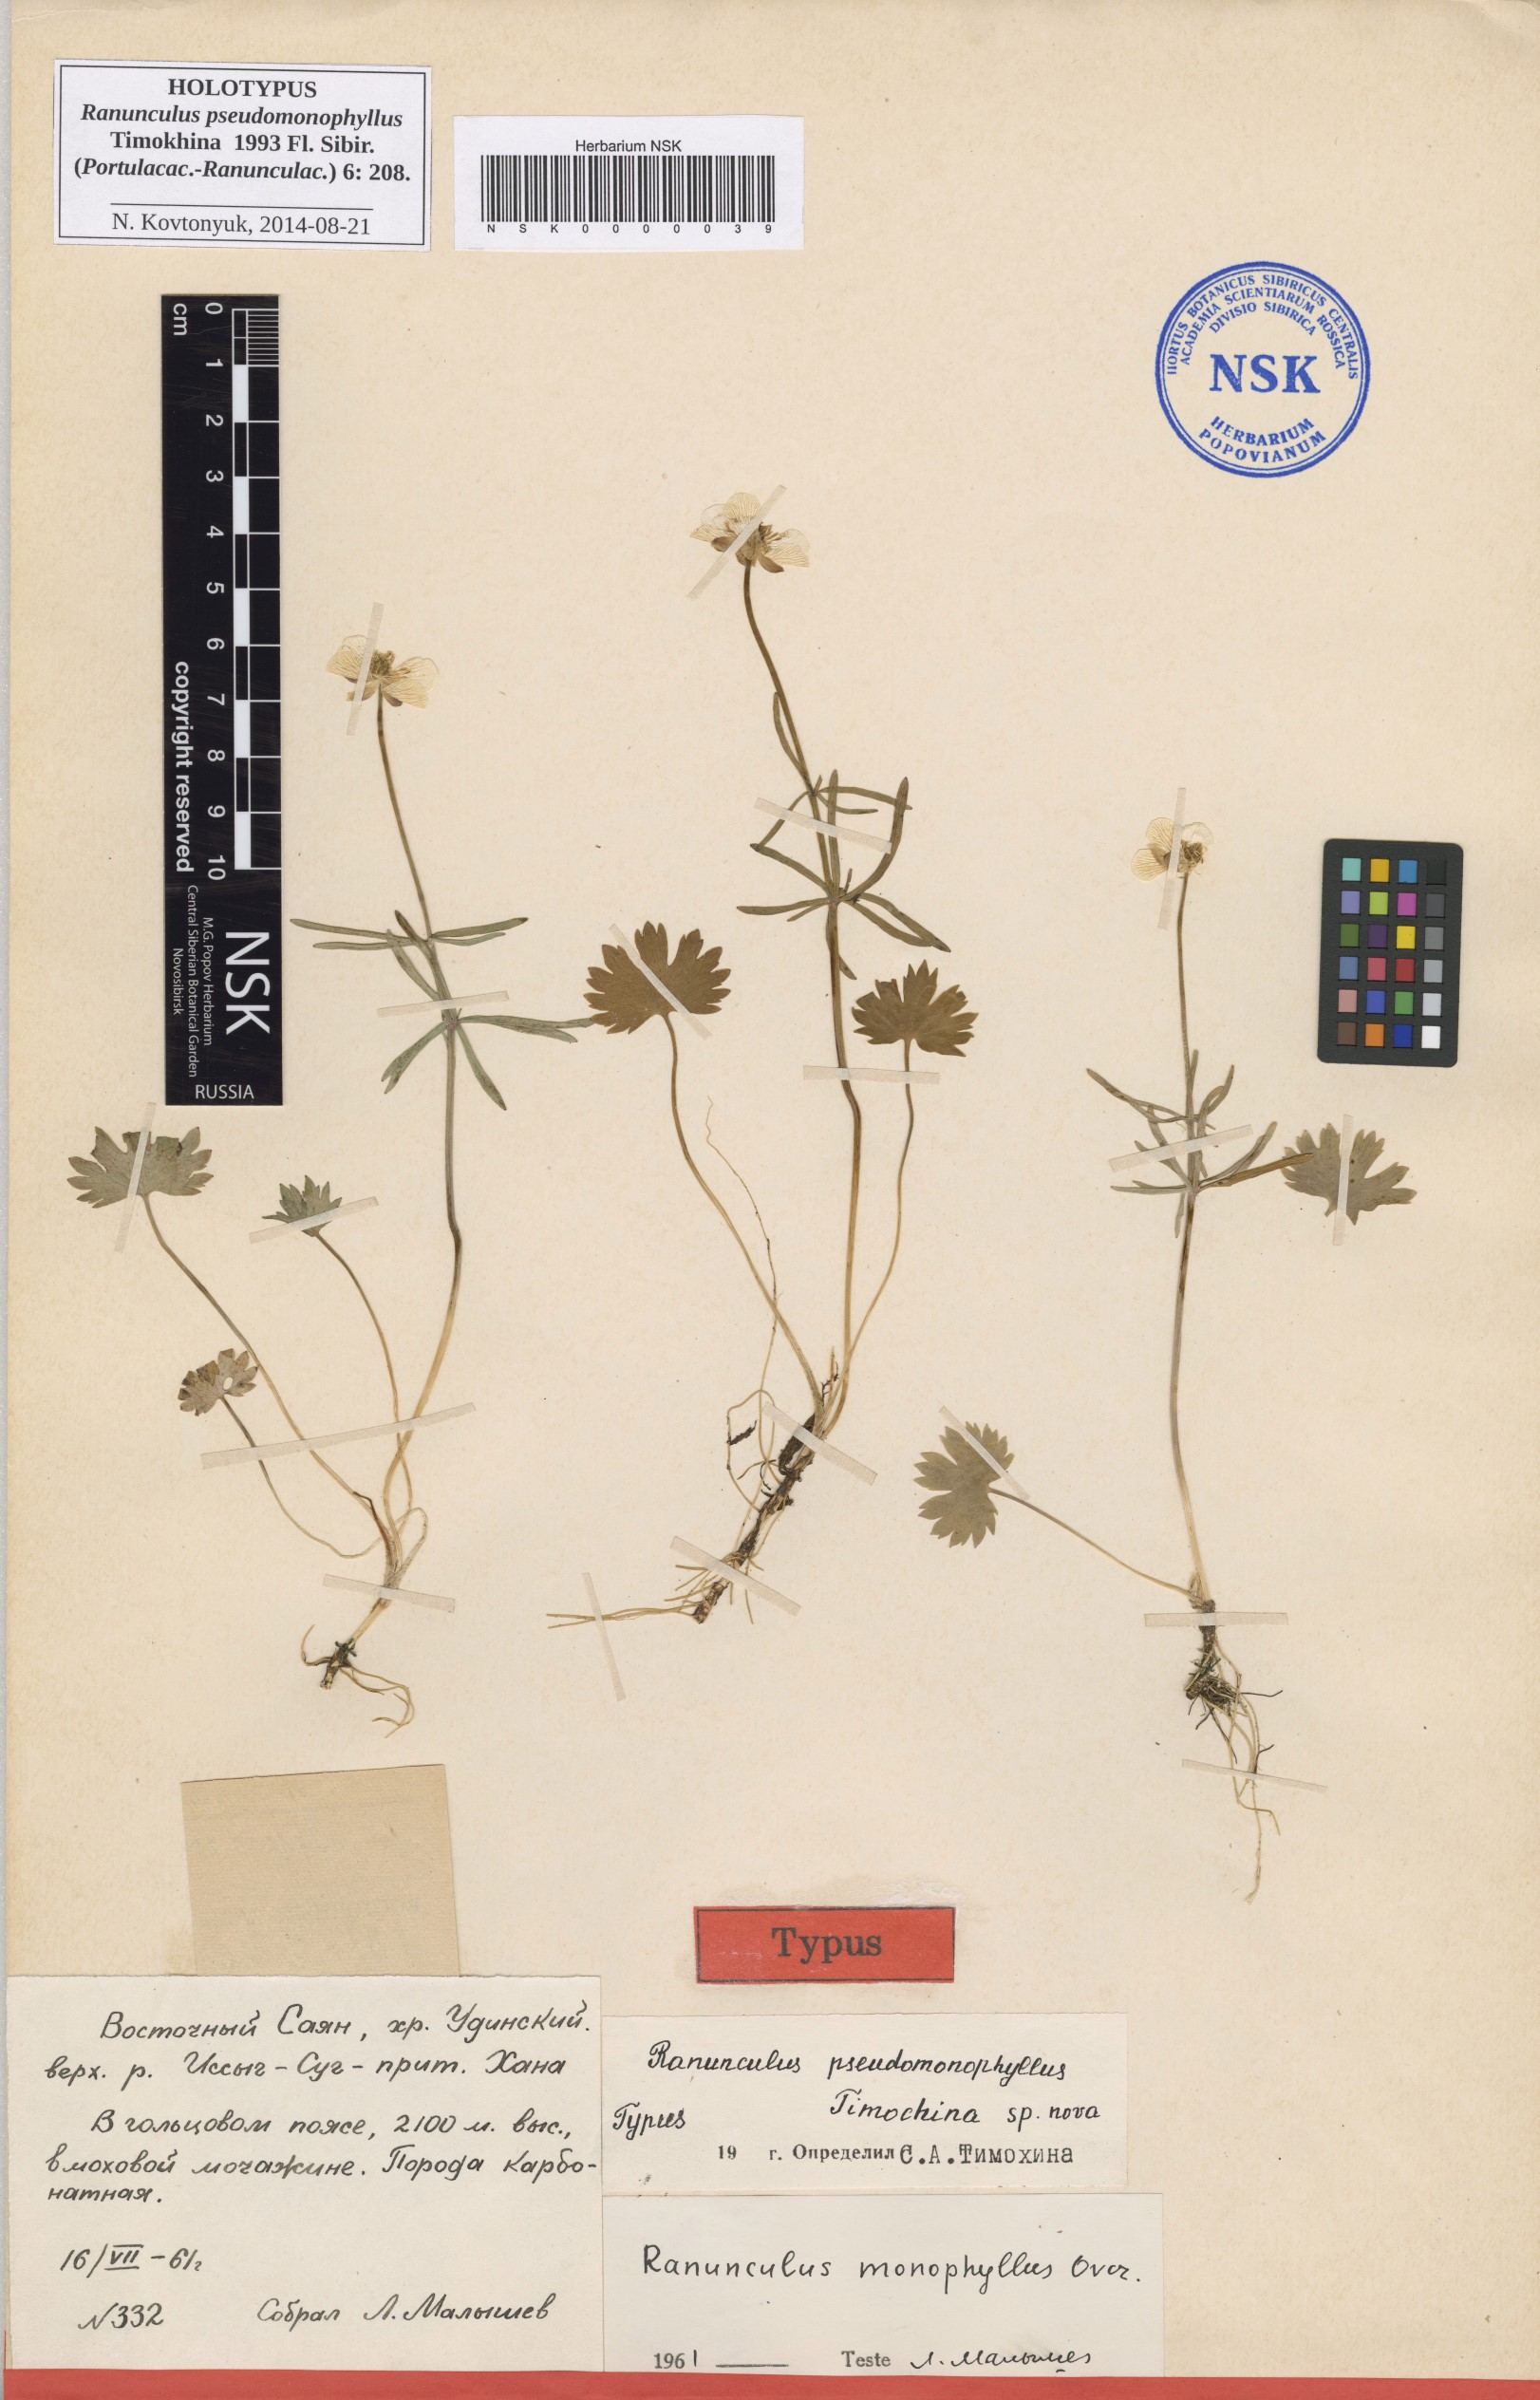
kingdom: Plantae
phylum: Tracheophyta
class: Magnoliopsida
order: Ranunculales
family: Ranunculaceae
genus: Ranunculus
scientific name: Ranunculus pseudomonophyllus
